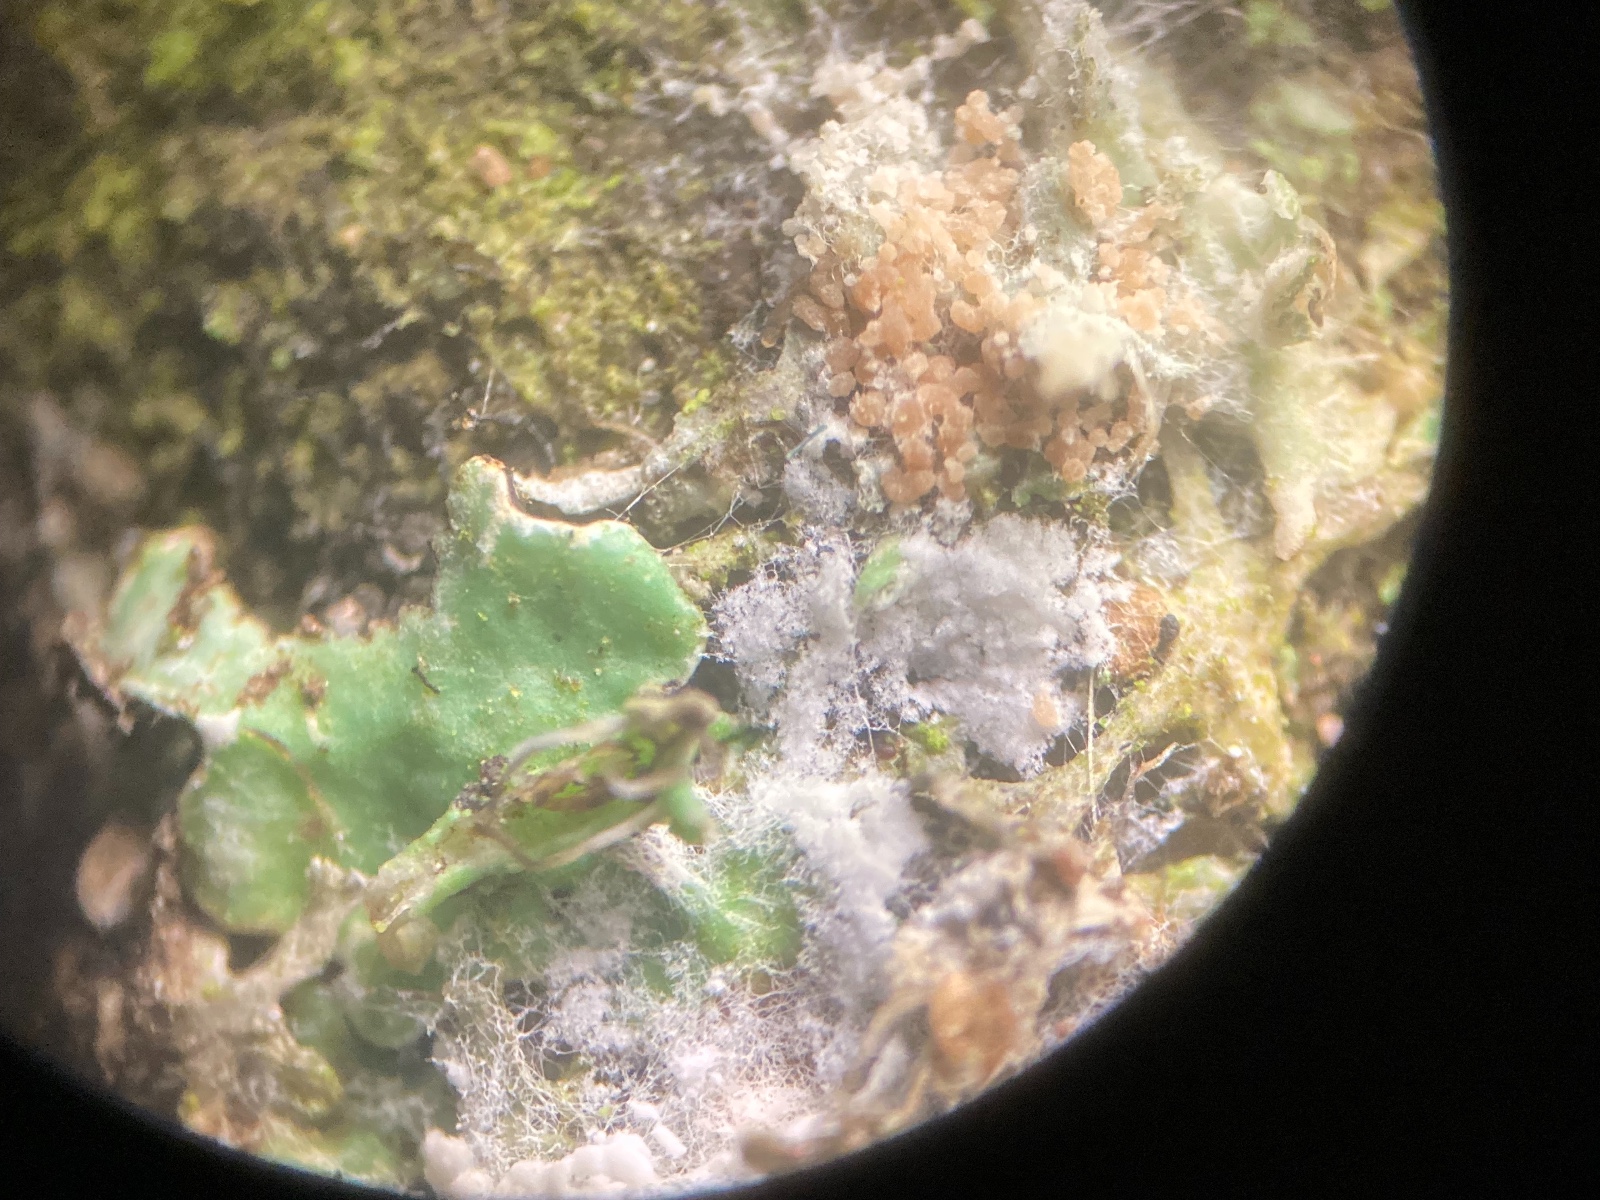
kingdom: Fungi
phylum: Basidiomycota
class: Agaricomycetes
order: Atheliales
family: Atheliaceae
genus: Athelia
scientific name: Athelia arachnoidea
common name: randet barkhinde
